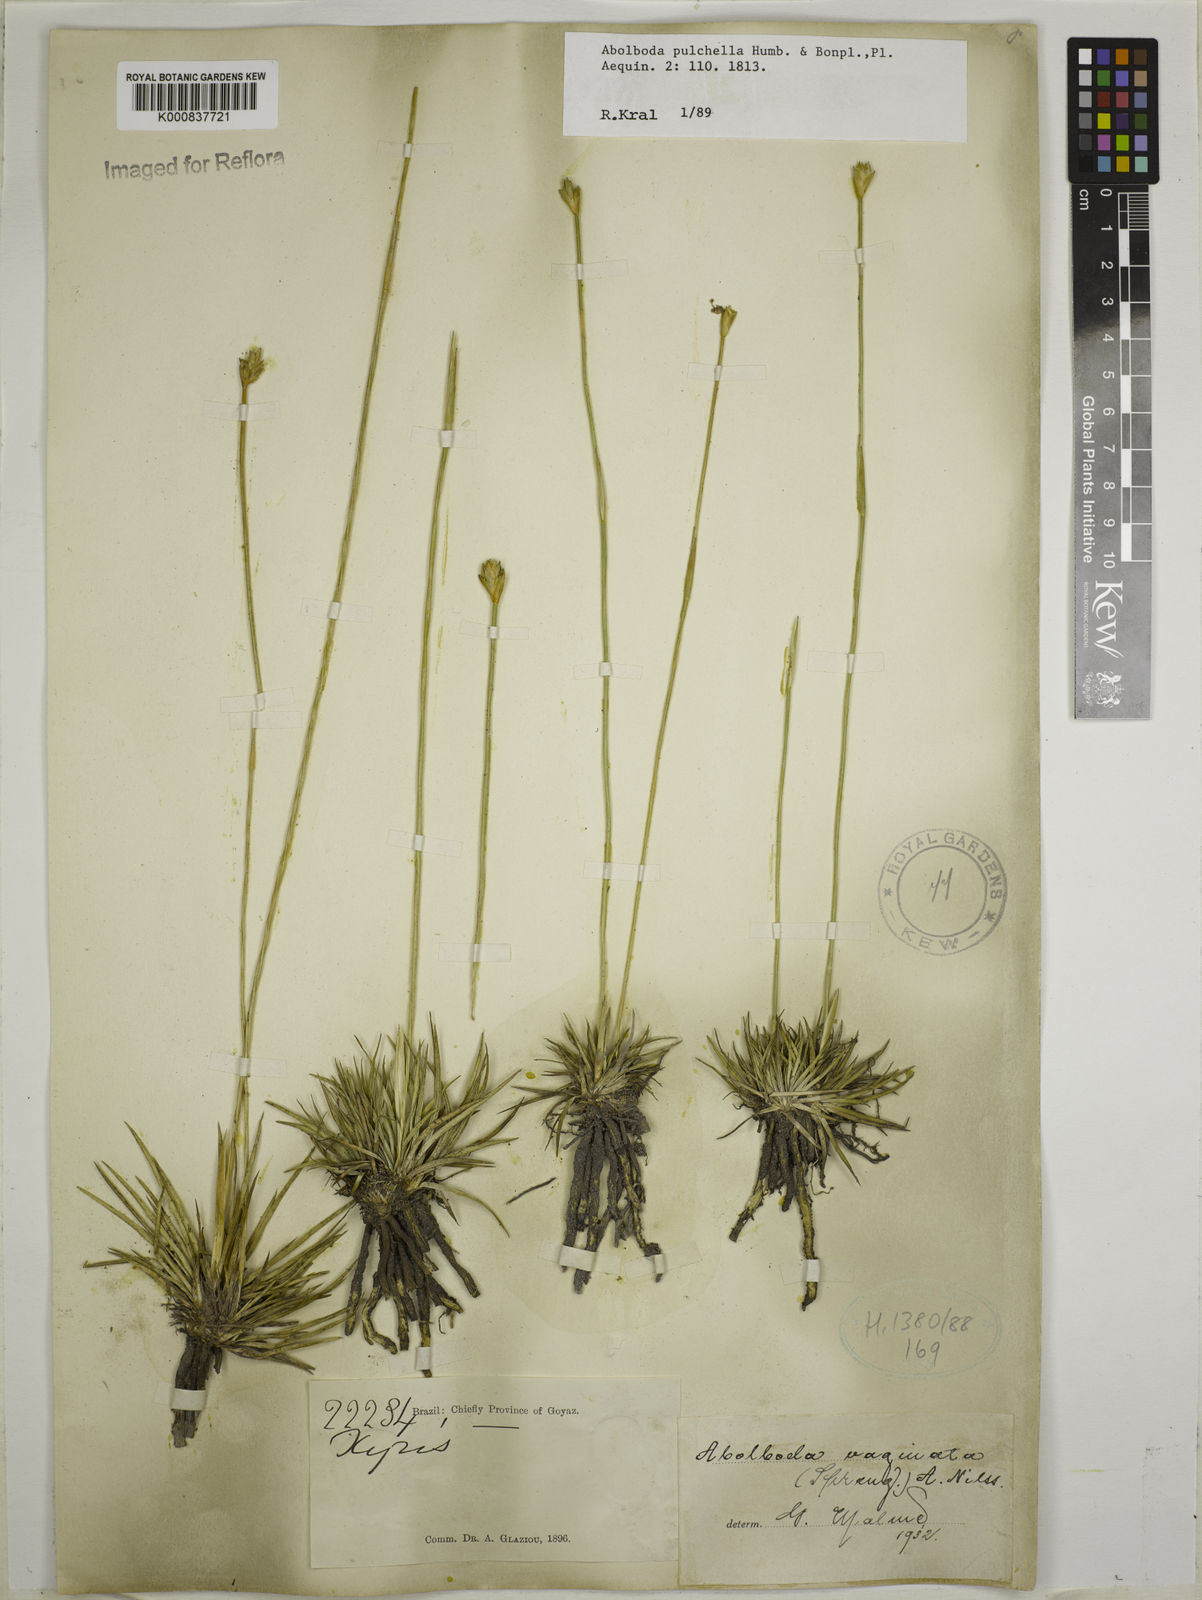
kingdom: Plantae
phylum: Tracheophyta
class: Liliopsida
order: Poales
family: Xyridaceae
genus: Abolboda
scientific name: Abolboda pulchella
